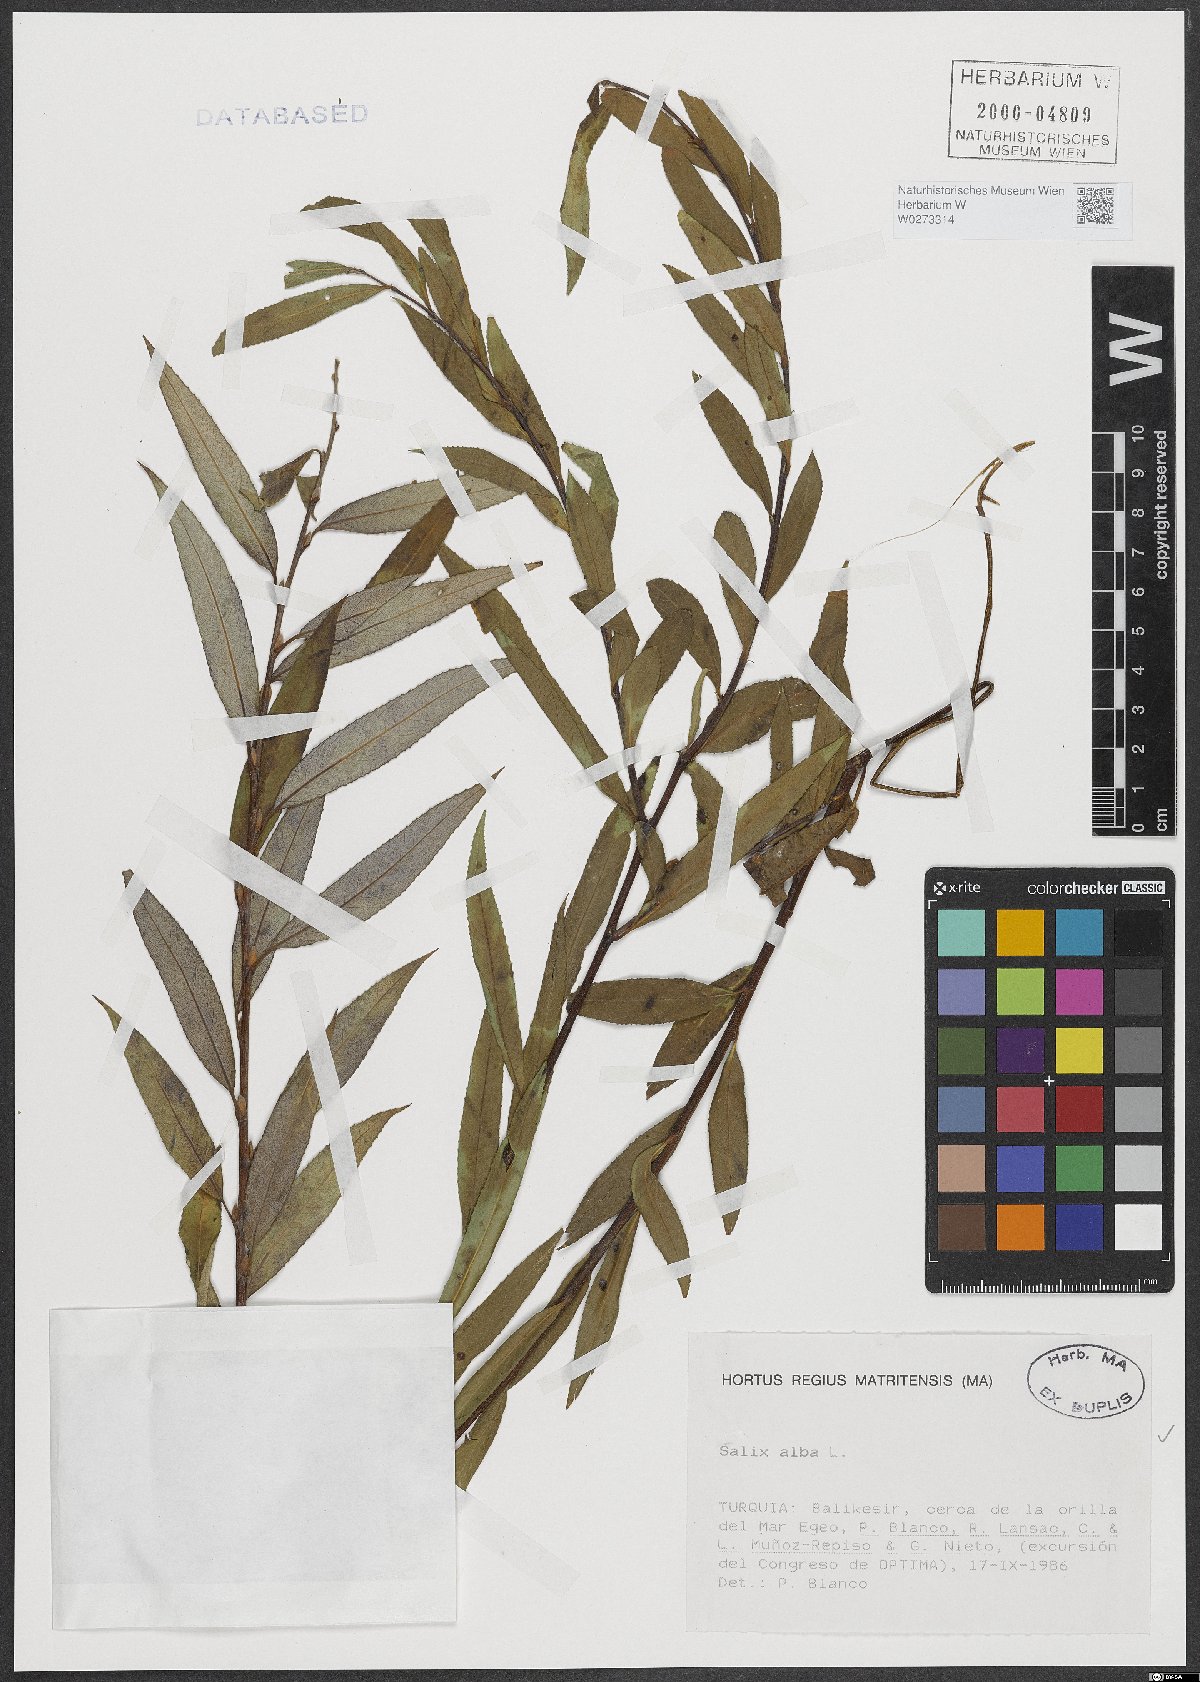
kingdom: Plantae
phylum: Tracheophyta
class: Magnoliopsida
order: Malpighiales
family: Salicaceae
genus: Salix
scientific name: Salix alba
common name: White willow
